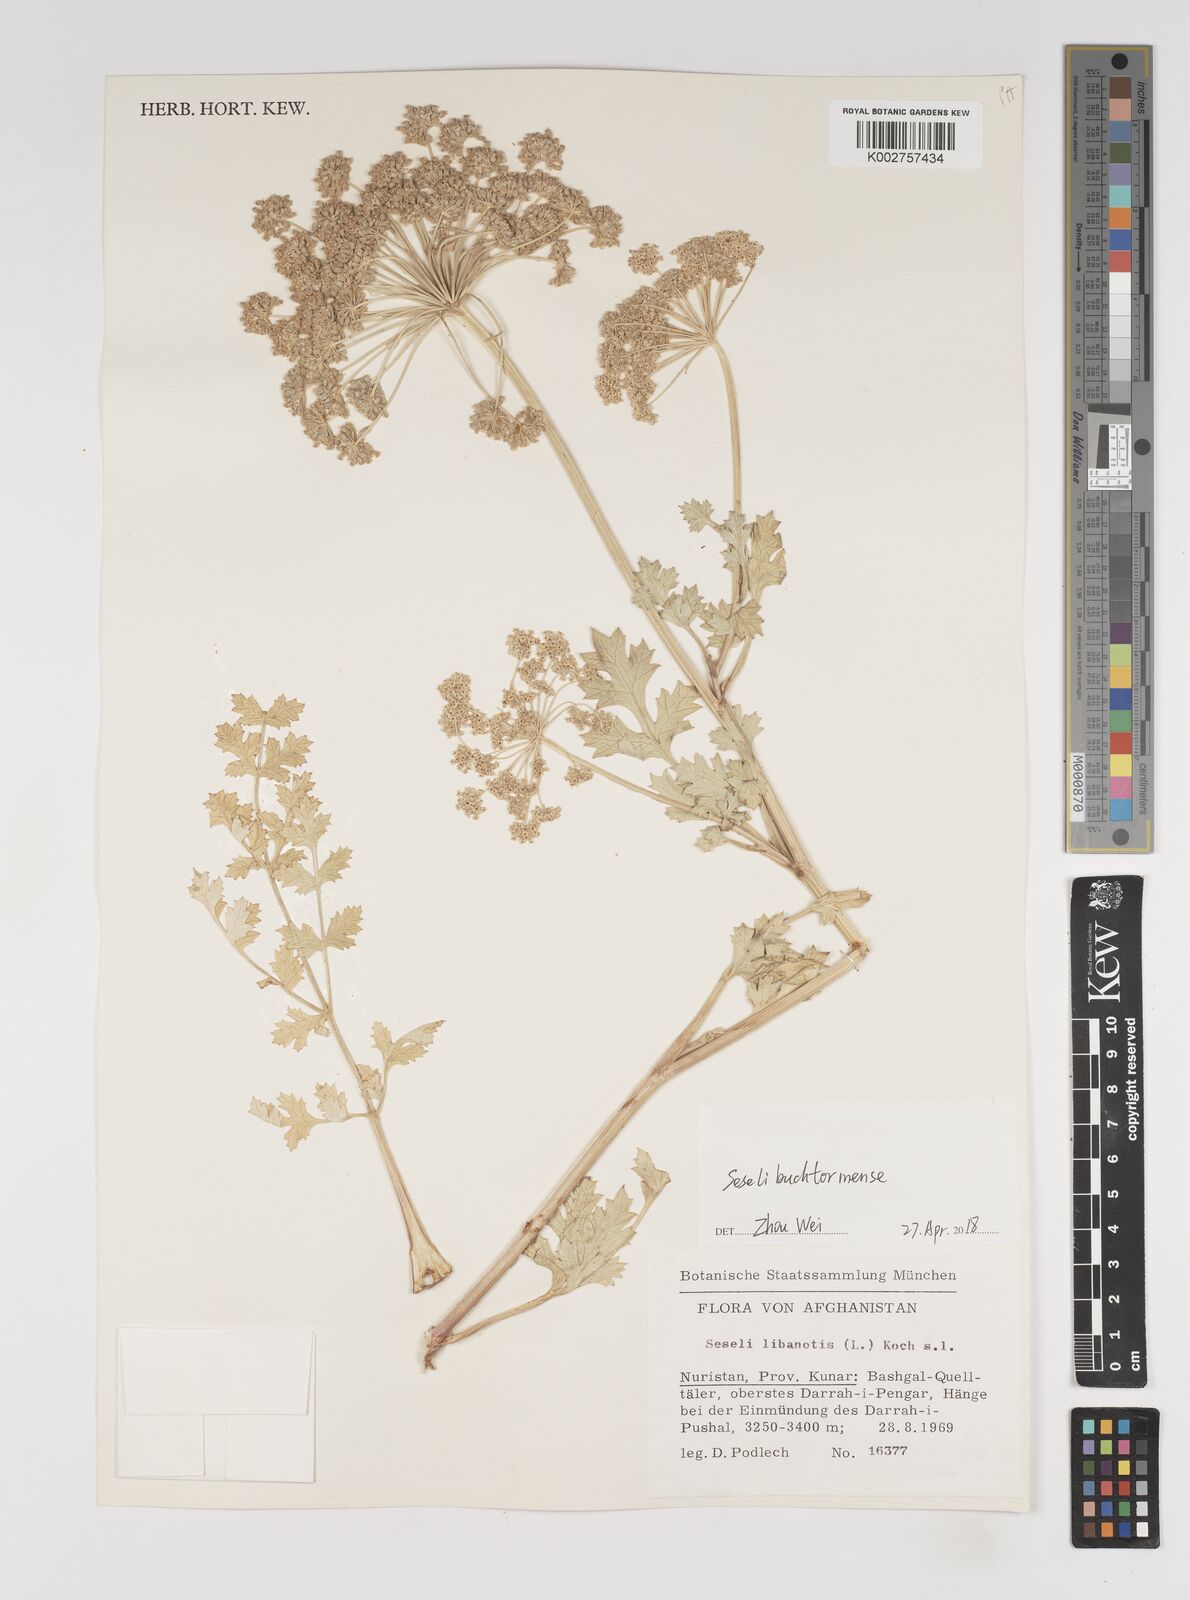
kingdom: Plantae
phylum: Tracheophyta
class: Magnoliopsida
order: Apiales
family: Apiaceae
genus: Seseli
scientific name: Seseli buchtormense
